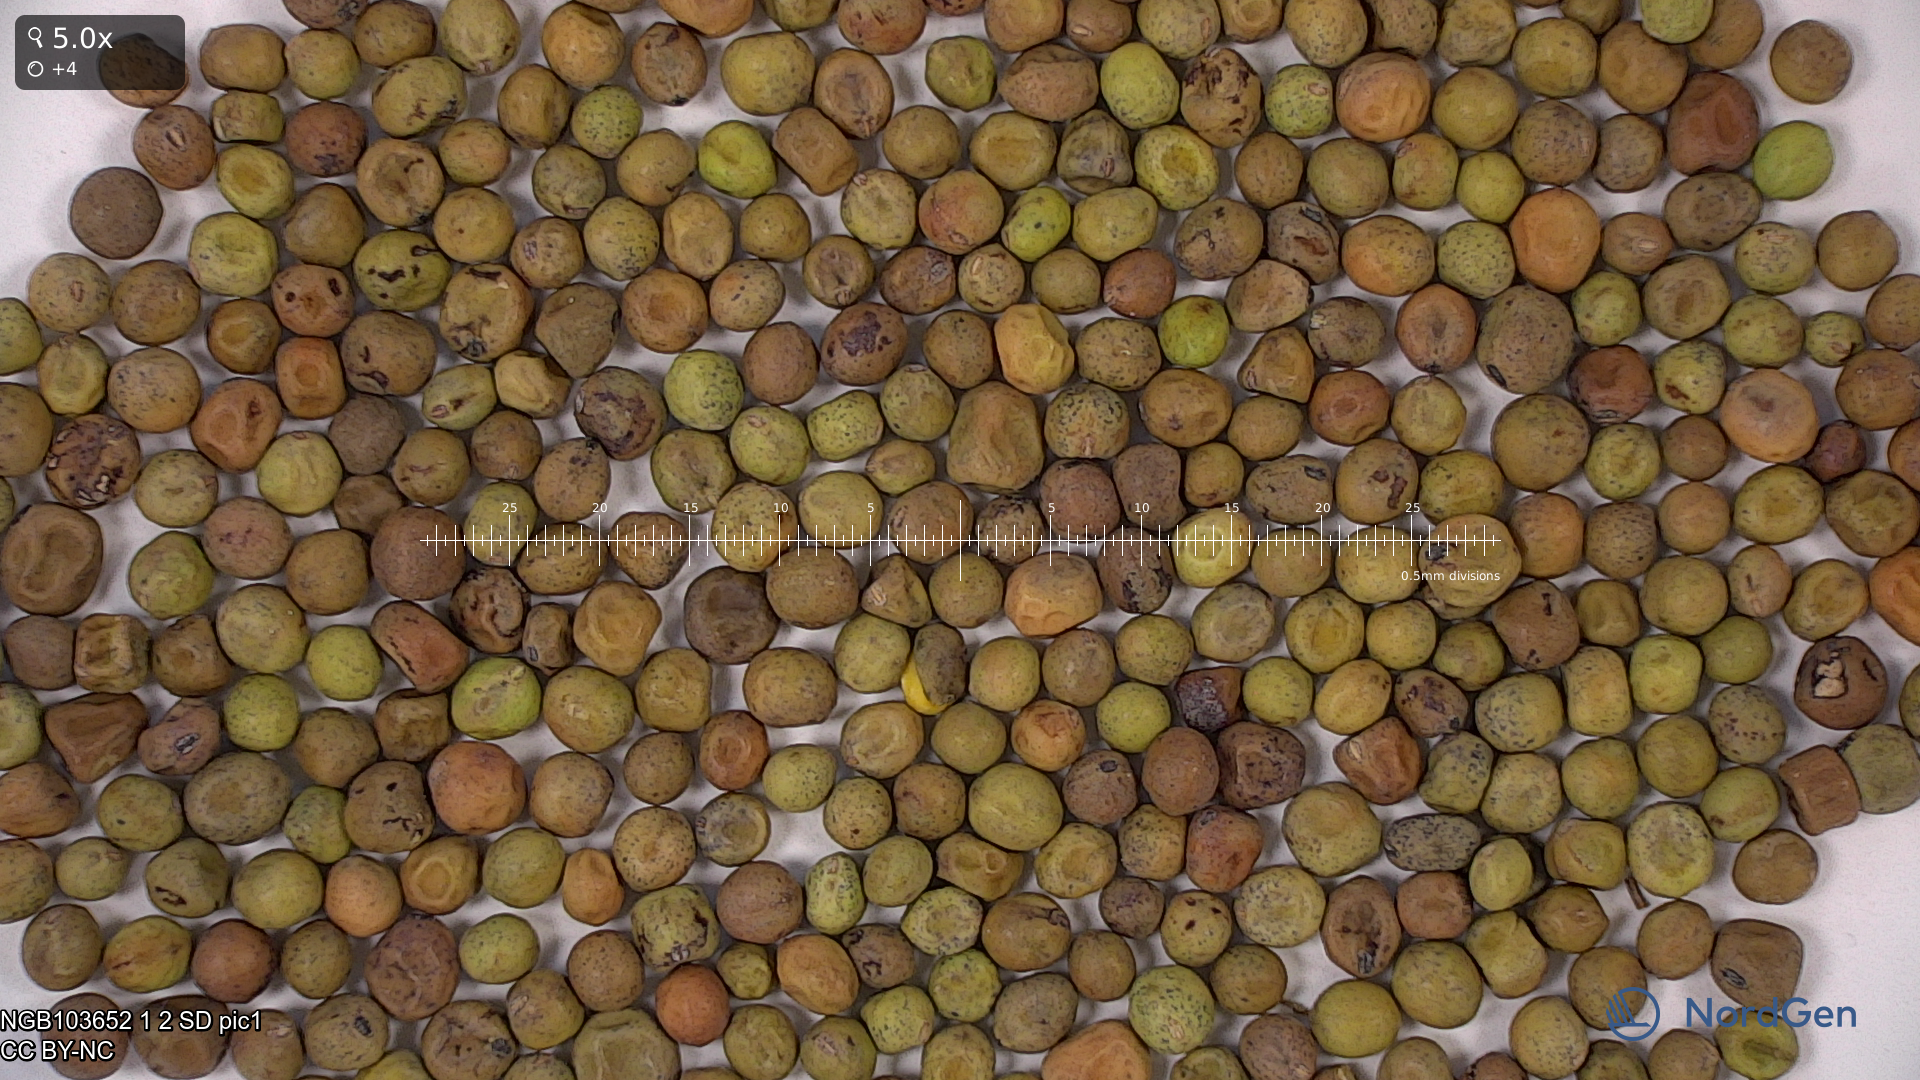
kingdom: Plantae
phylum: Tracheophyta
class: Magnoliopsida
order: Fabales
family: Fabaceae
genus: Lathyrus
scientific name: Lathyrus oleraceus
